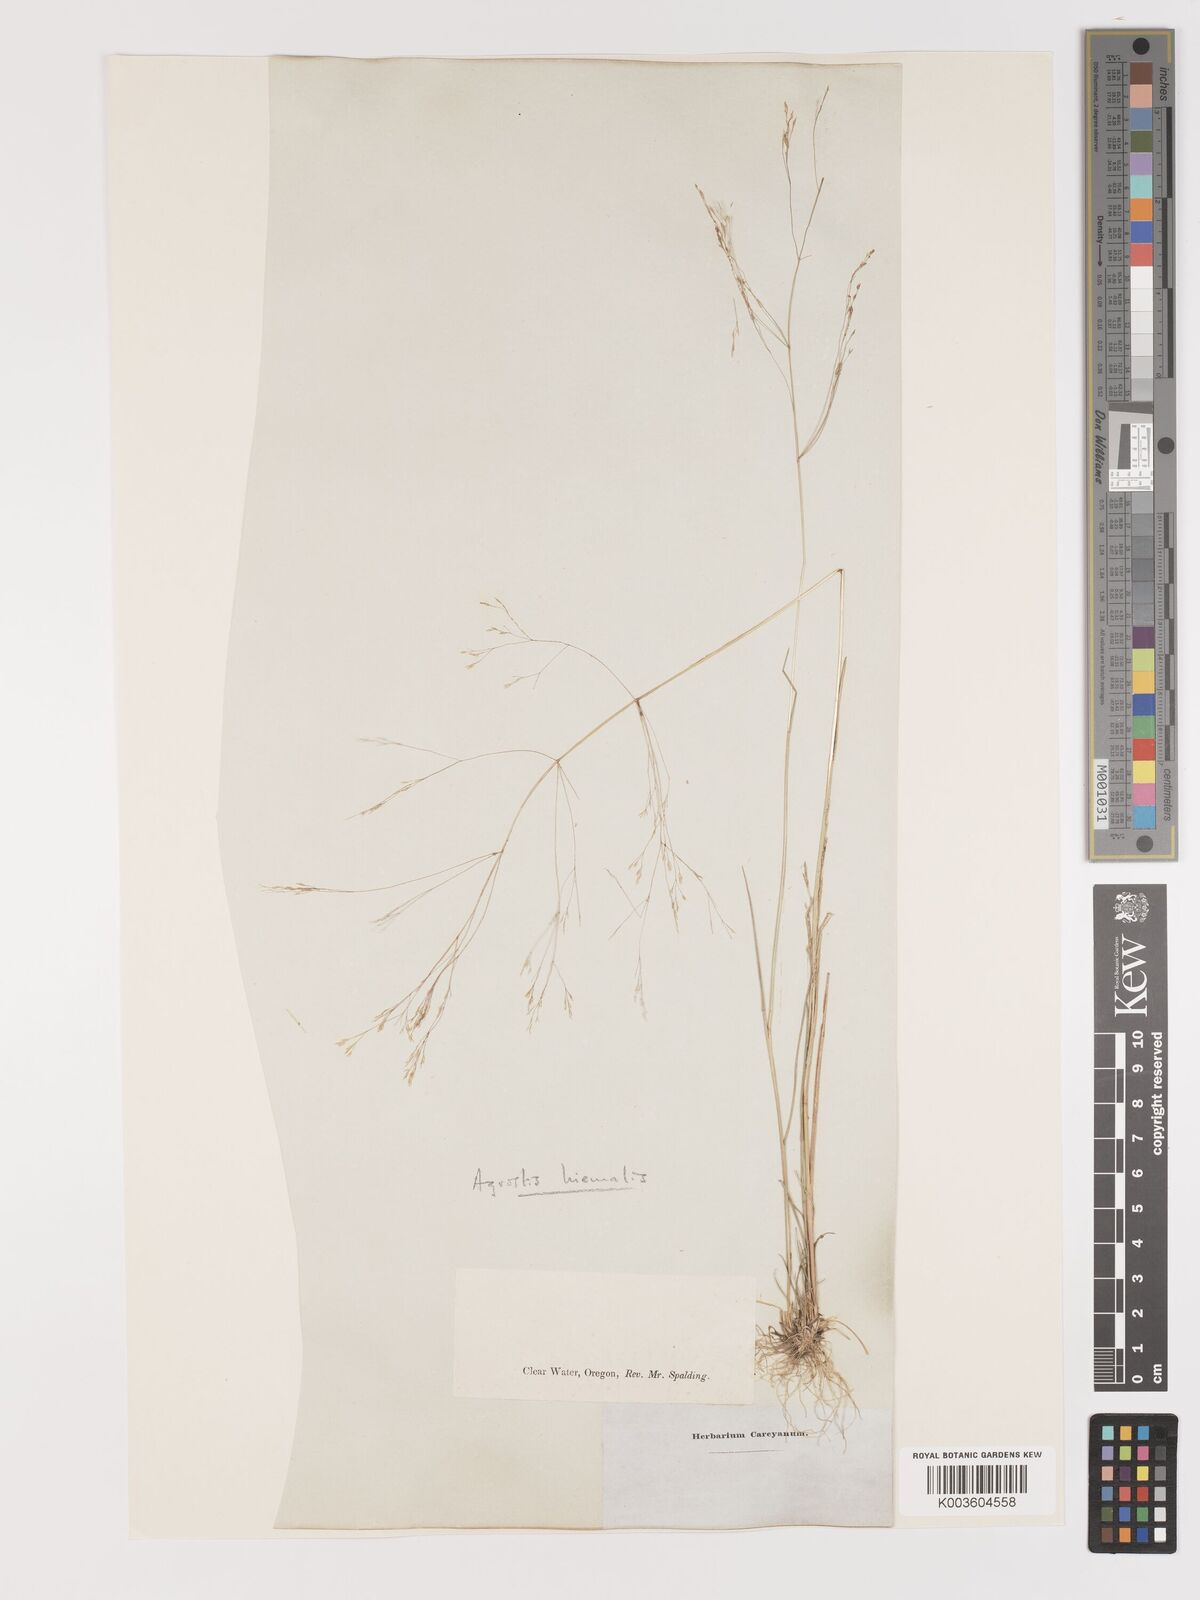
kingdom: Plantae
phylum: Tracheophyta
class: Liliopsida
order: Poales
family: Poaceae
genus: Agrostis
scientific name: Agrostis hyemalis
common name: Small bent
